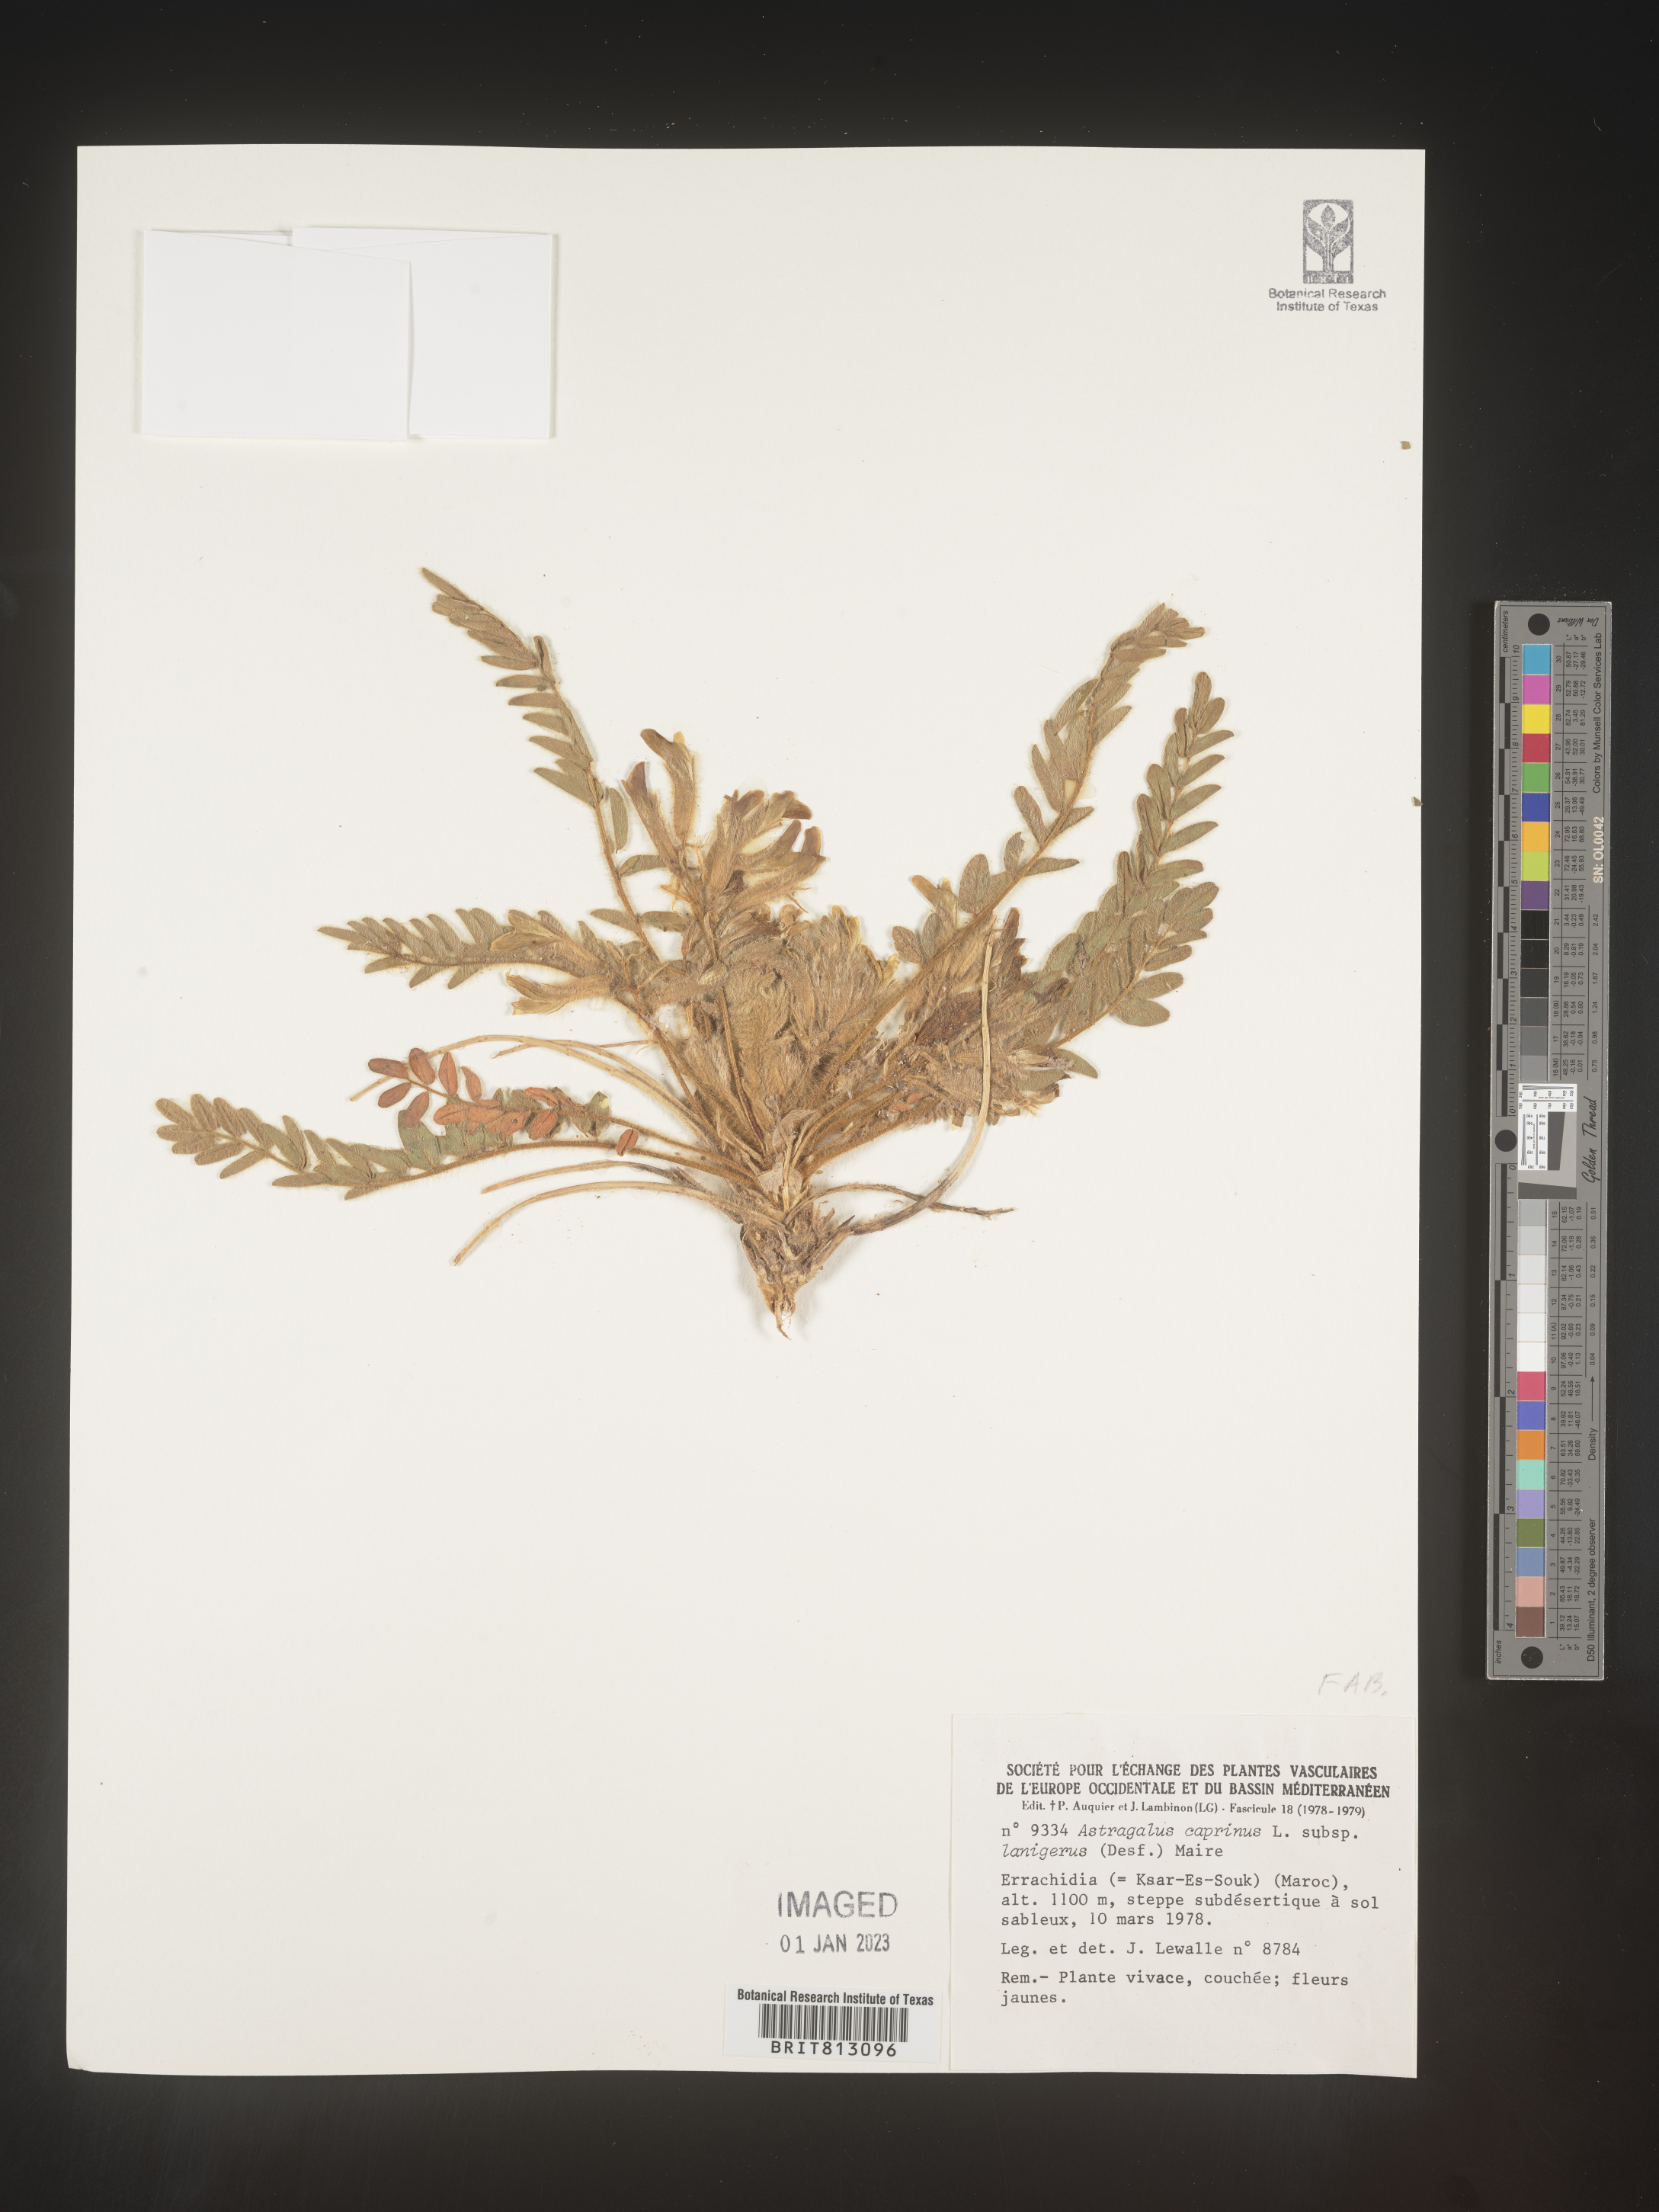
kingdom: Plantae
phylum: Tracheophyta
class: Magnoliopsida
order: Fabales
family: Fabaceae
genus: Astragalus
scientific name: Astragalus
